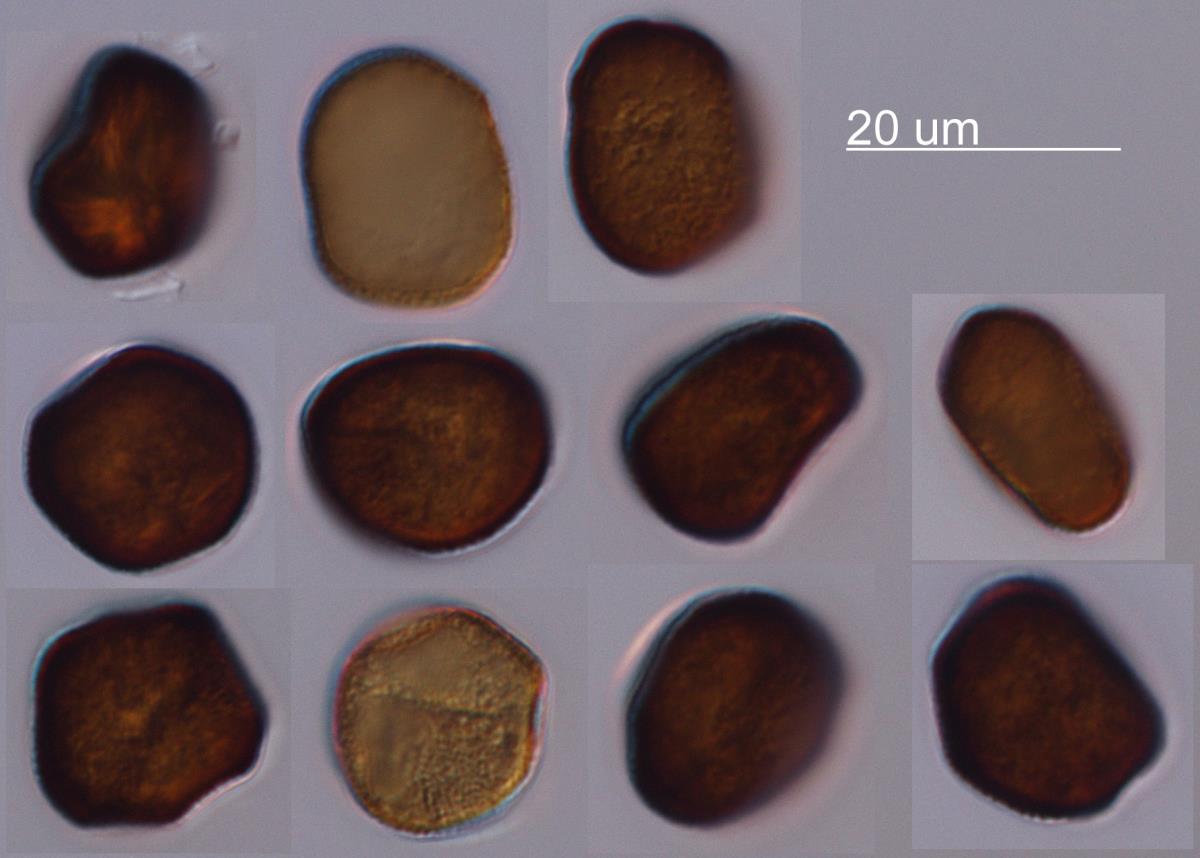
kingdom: Fungi
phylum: Basidiomycota
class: Ustilaginomycetes
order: Ustilaginales
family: Anthracoideaceae
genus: Anthracoidea
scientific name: Anthracoidea heterospora
